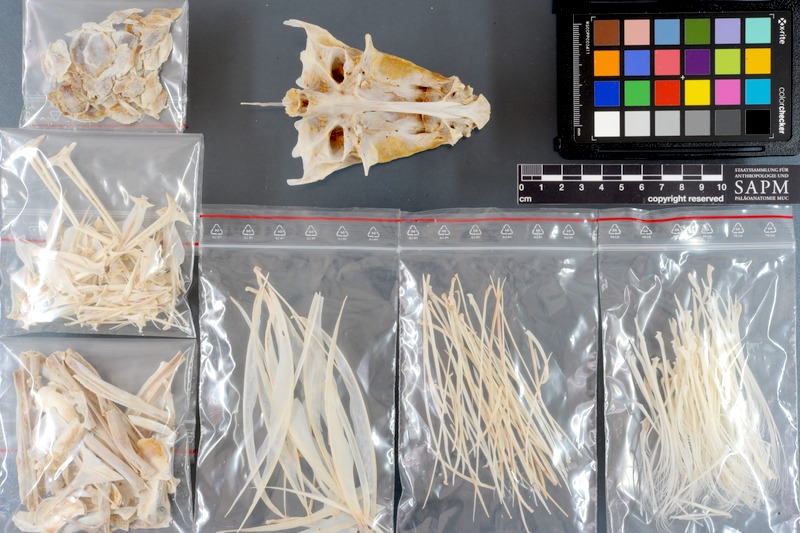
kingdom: Animalia
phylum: Chordata
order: Perciformes
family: Scombridae
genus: Katsuwonus
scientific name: Katsuwonus pelamis
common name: Skipjack tuna
